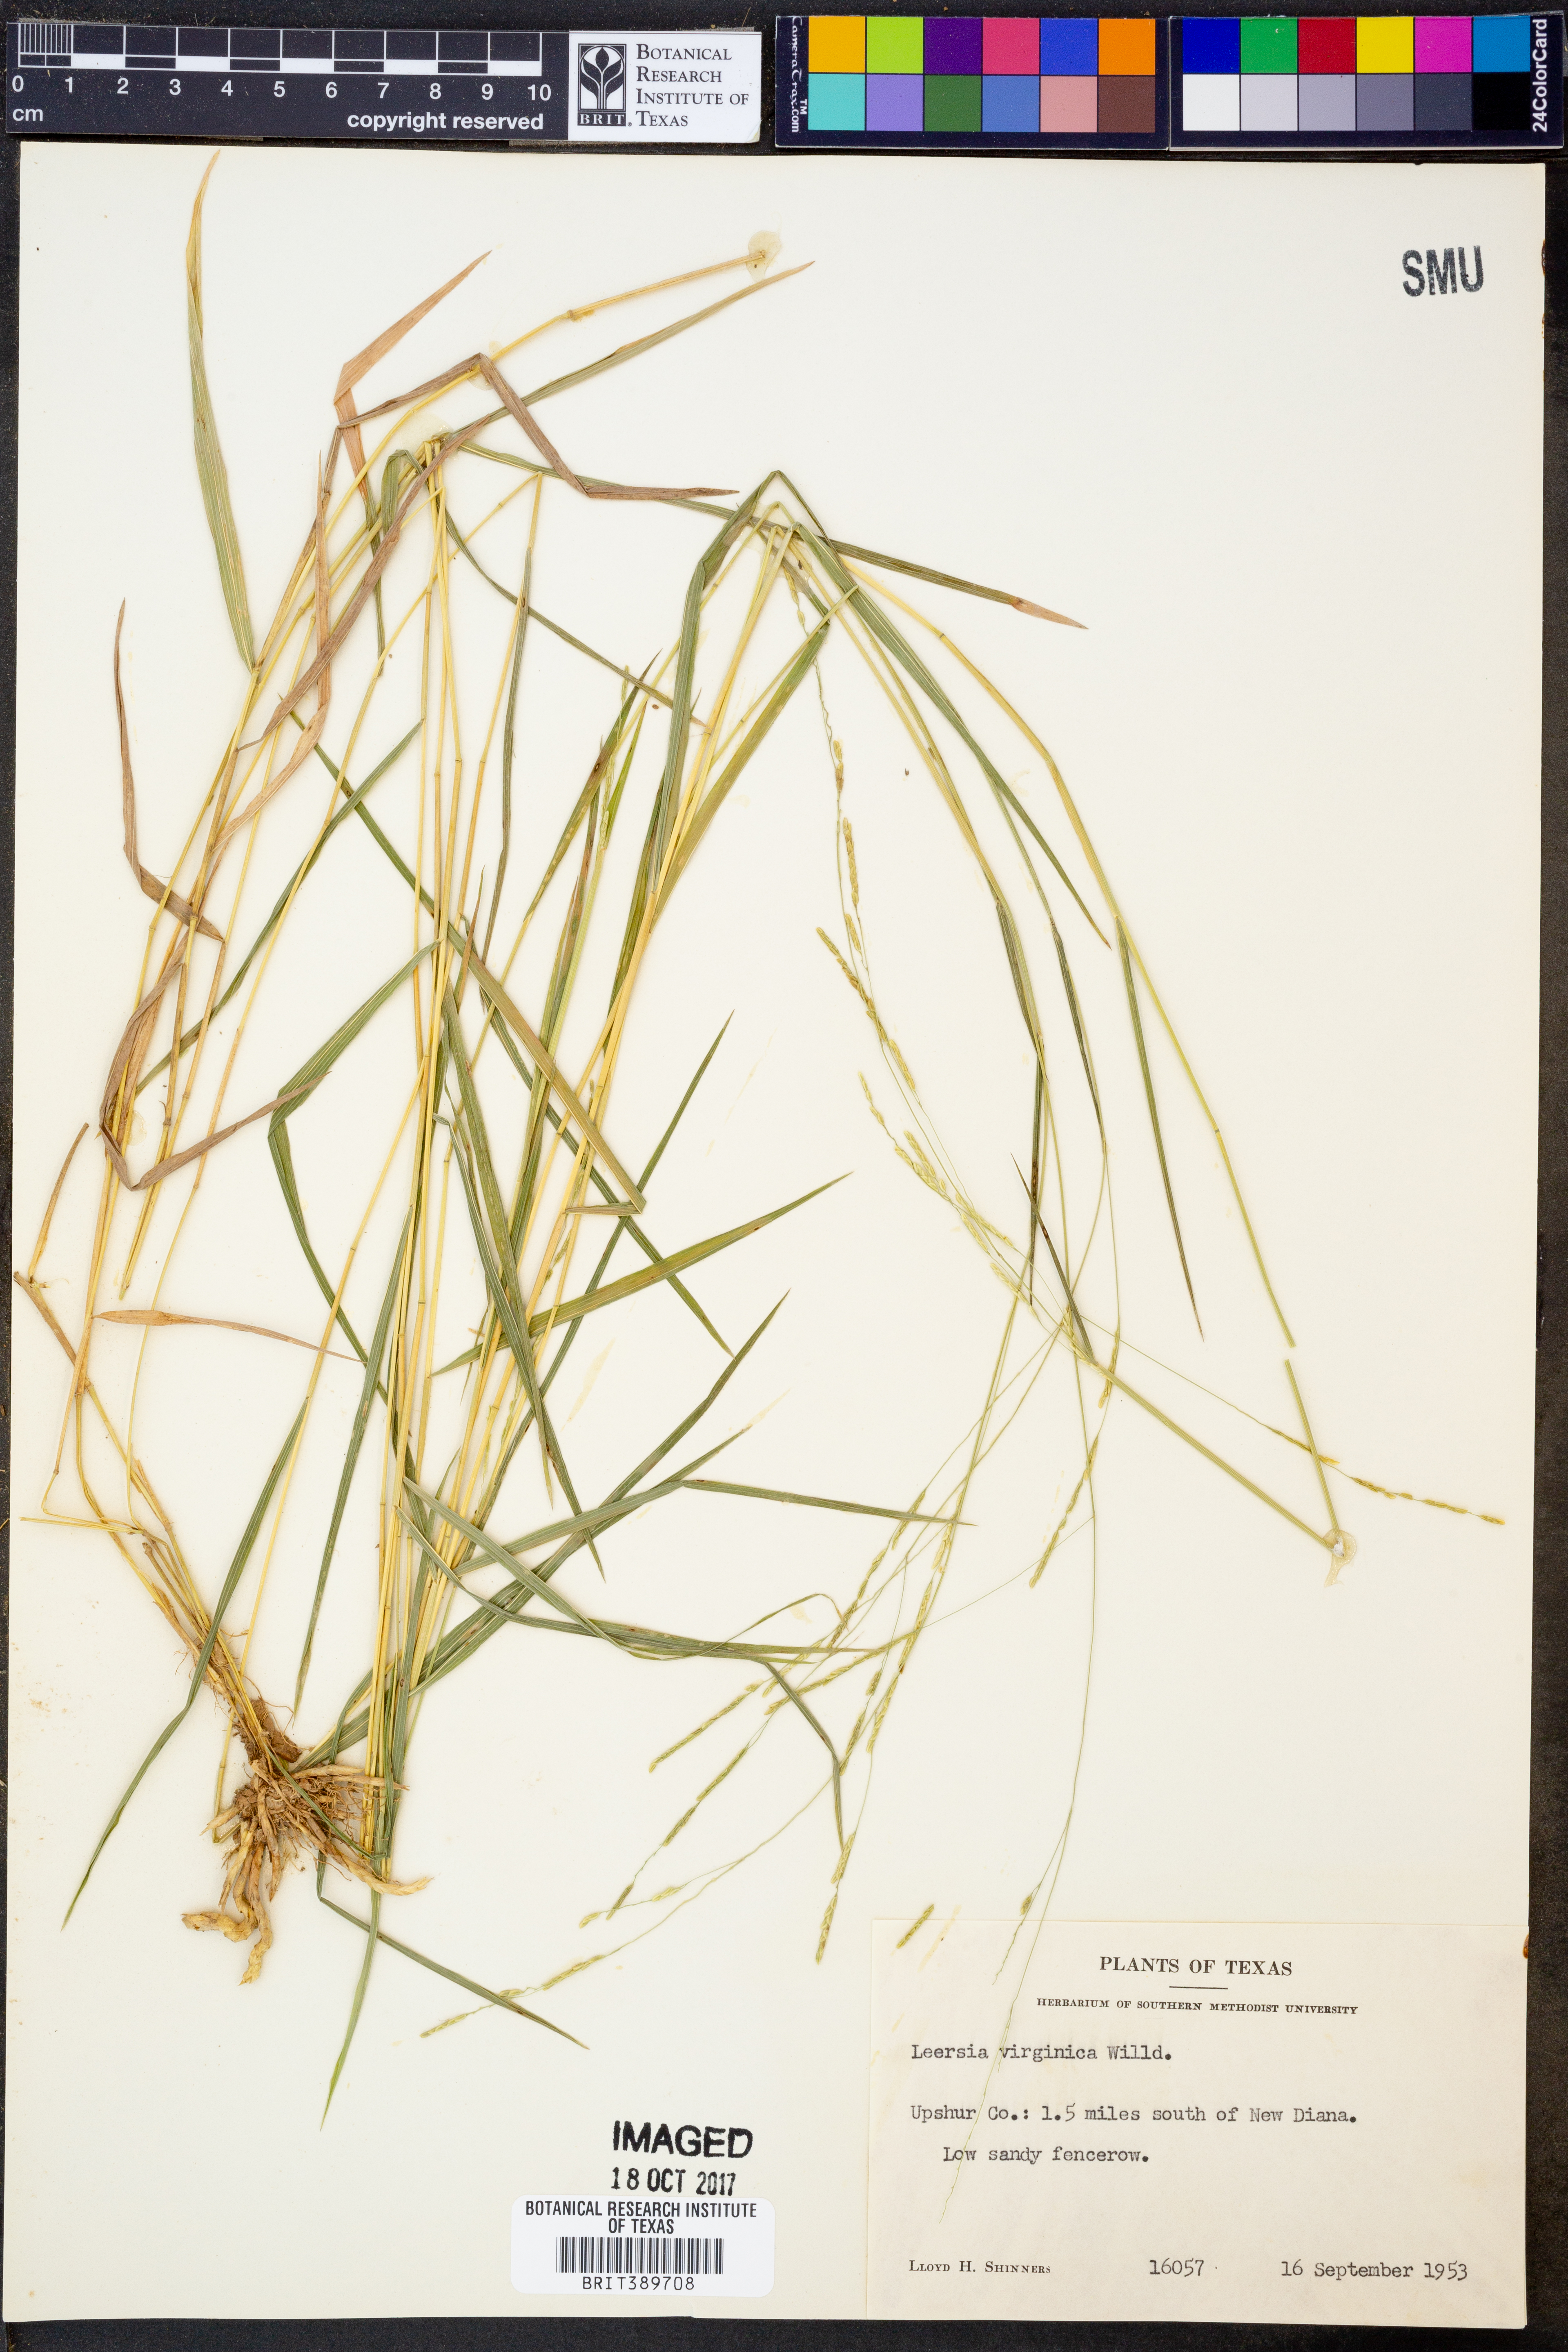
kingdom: Plantae
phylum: Tracheophyta
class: Liliopsida
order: Poales
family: Poaceae
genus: Leersia
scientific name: Leersia virginica
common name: White cutgrass
